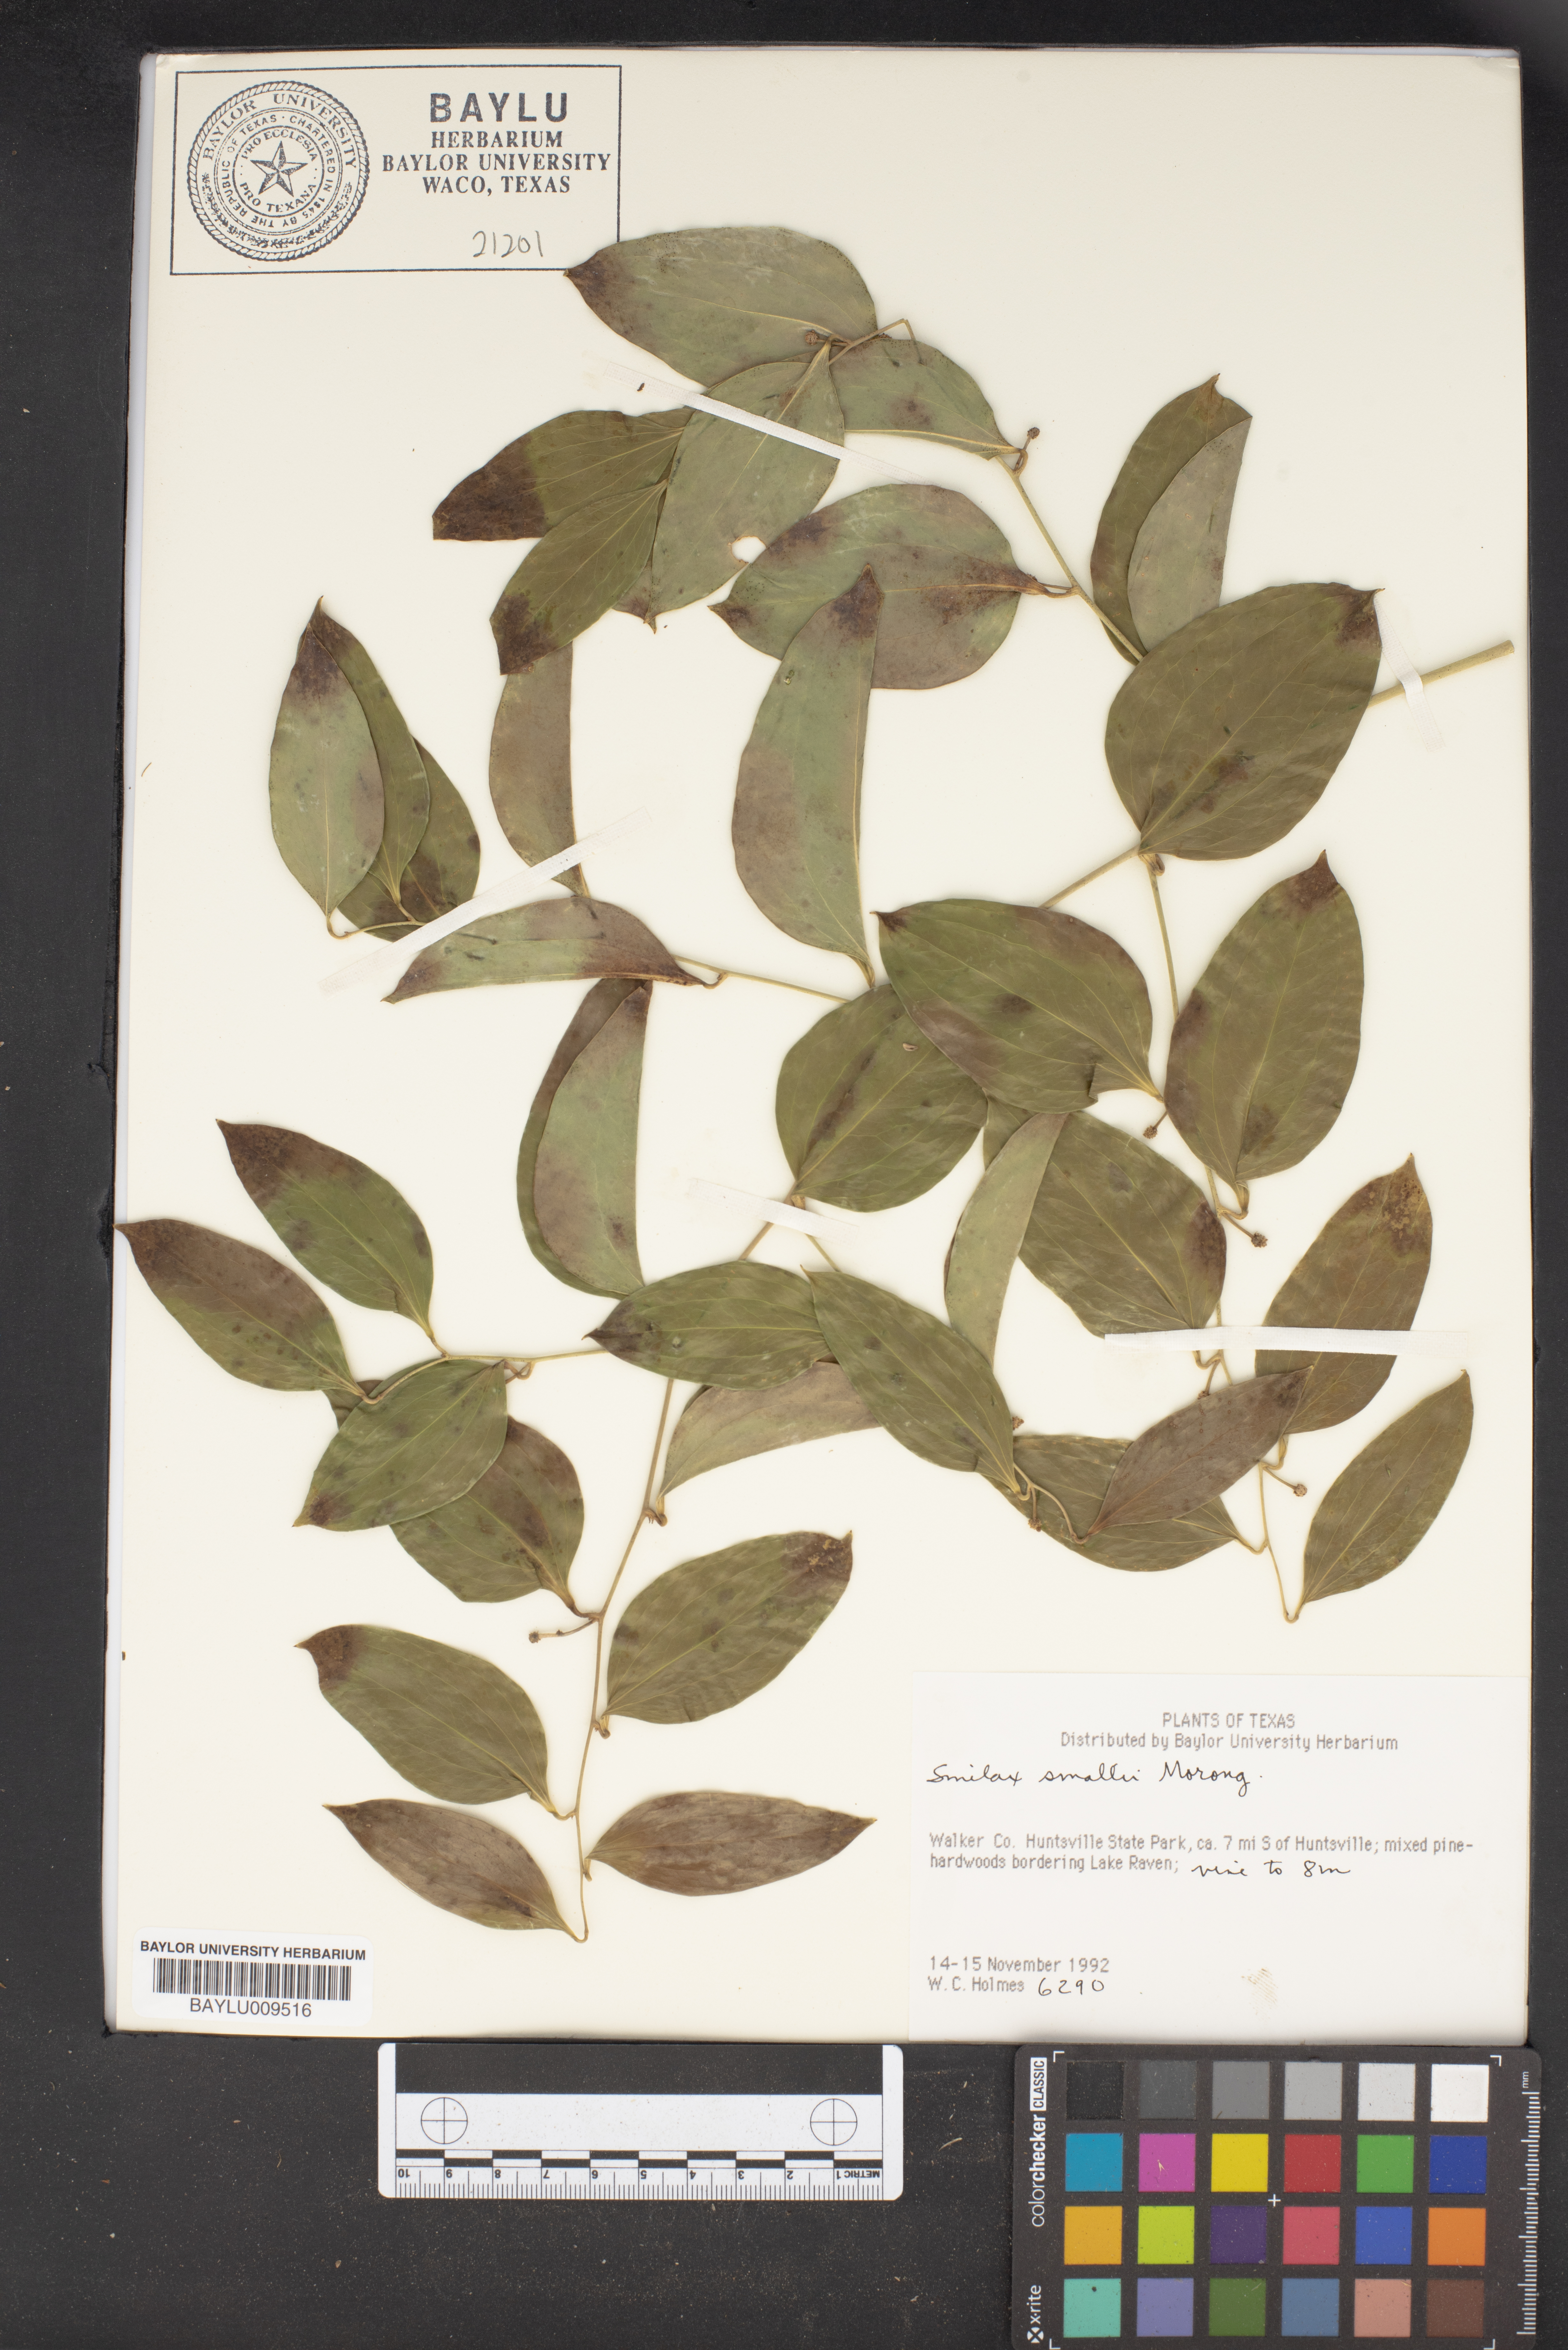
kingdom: Plantae
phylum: Tracheophyta
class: Liliopsida
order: Liliales
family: Smilacaceae
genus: Smilax
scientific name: Smilax maritima
